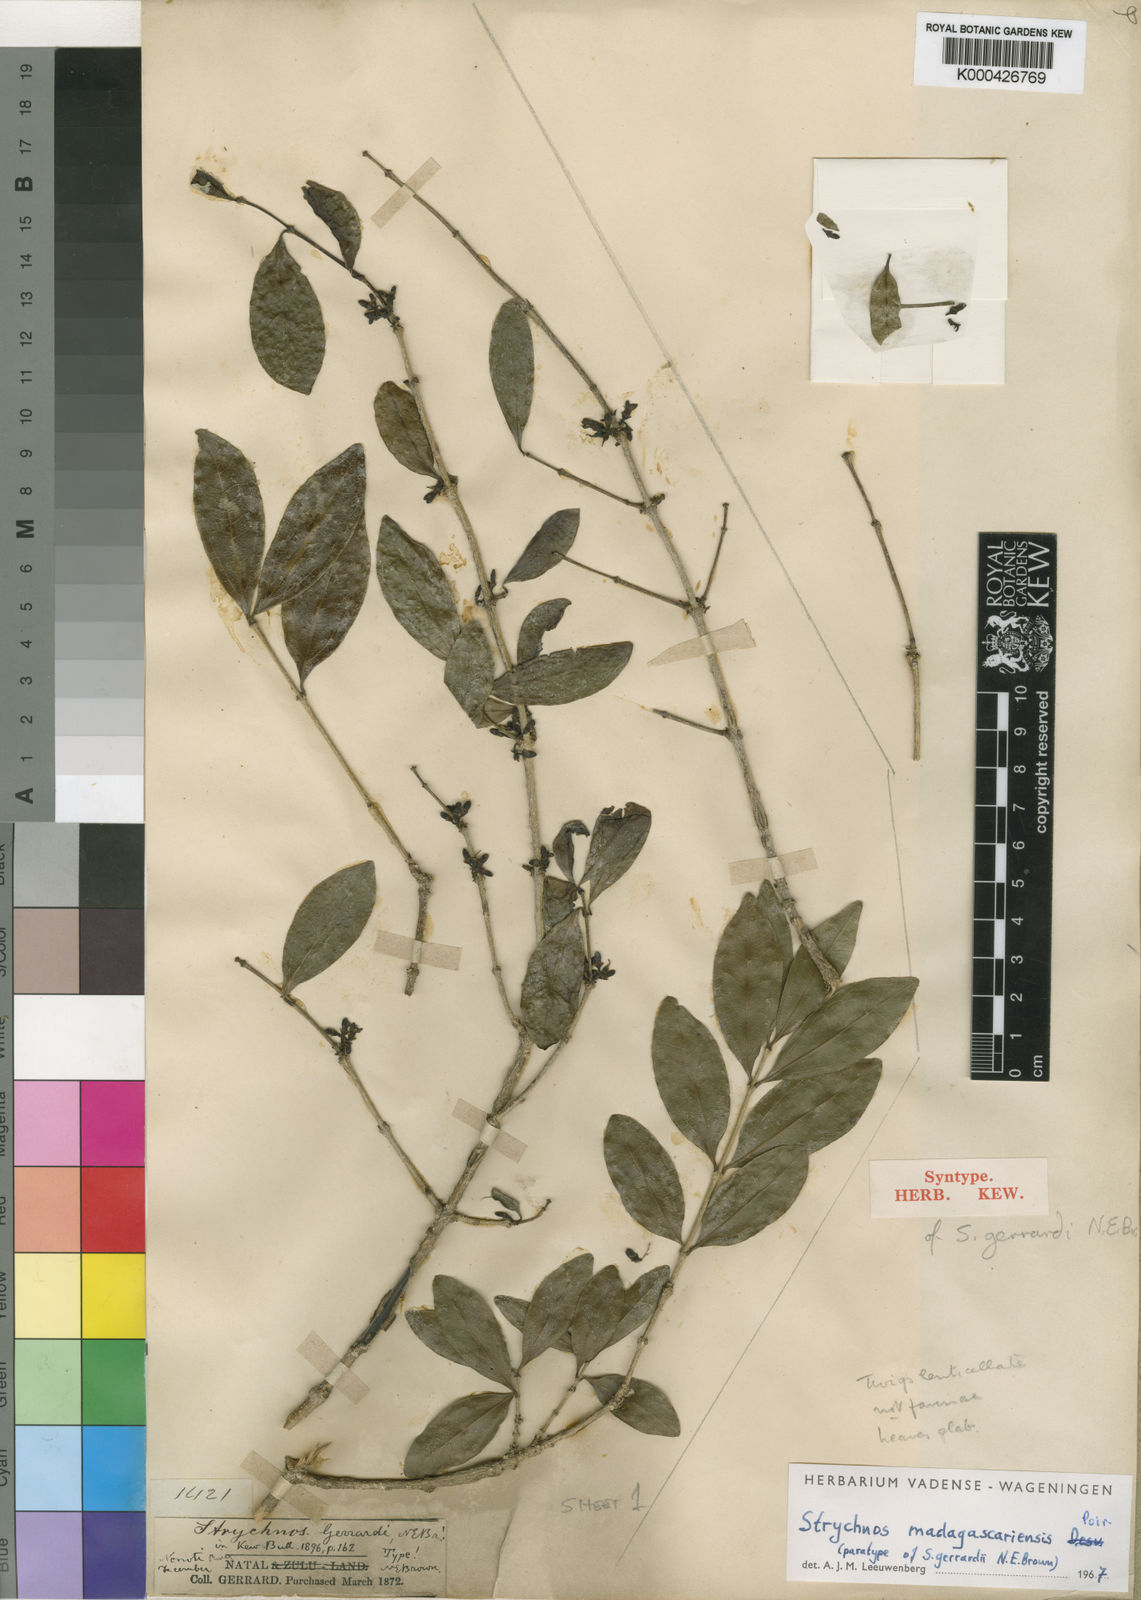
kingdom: Plantae
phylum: Tracheophyta
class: Magnoliopsida
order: Gentianales
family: Loganiaceae
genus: Strychnos
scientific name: Strychnos madagascariensis
